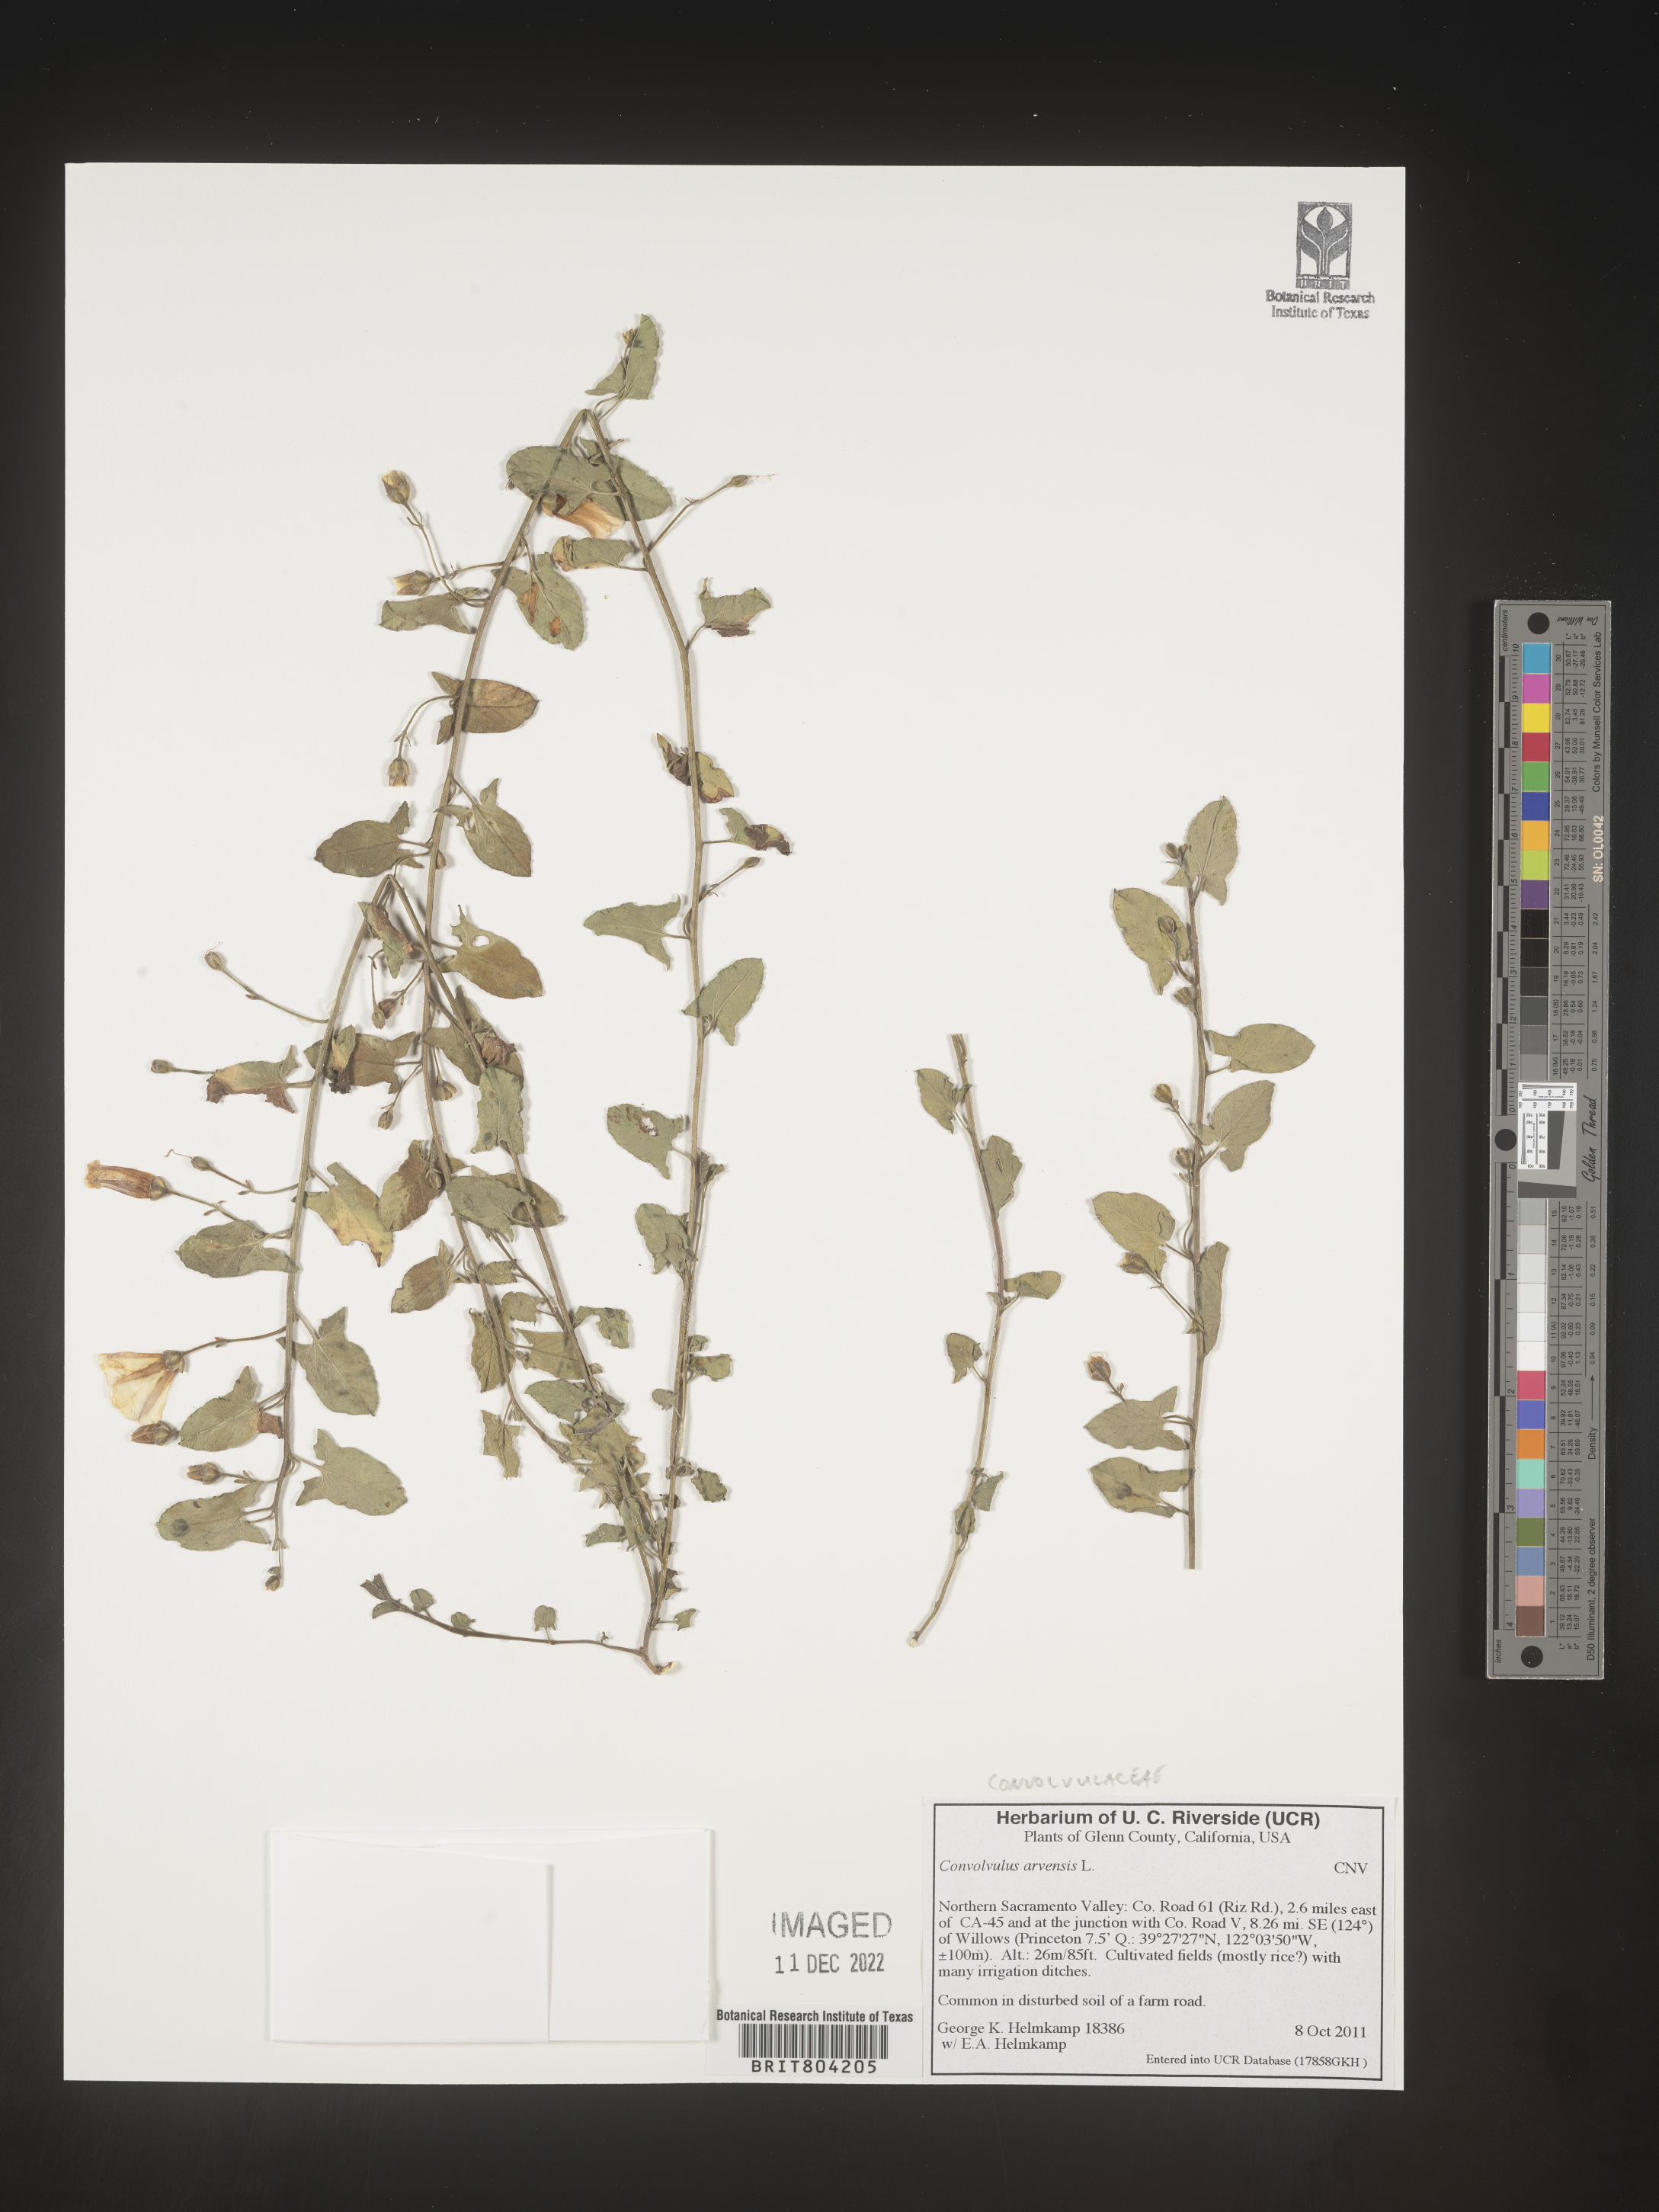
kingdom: Plantae
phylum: Tracheophyta
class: Magnoliopsida
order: Solanales
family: Convolvulaceae
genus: Convolvulus
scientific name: Convolvulus arvensis
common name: Field bindweed
